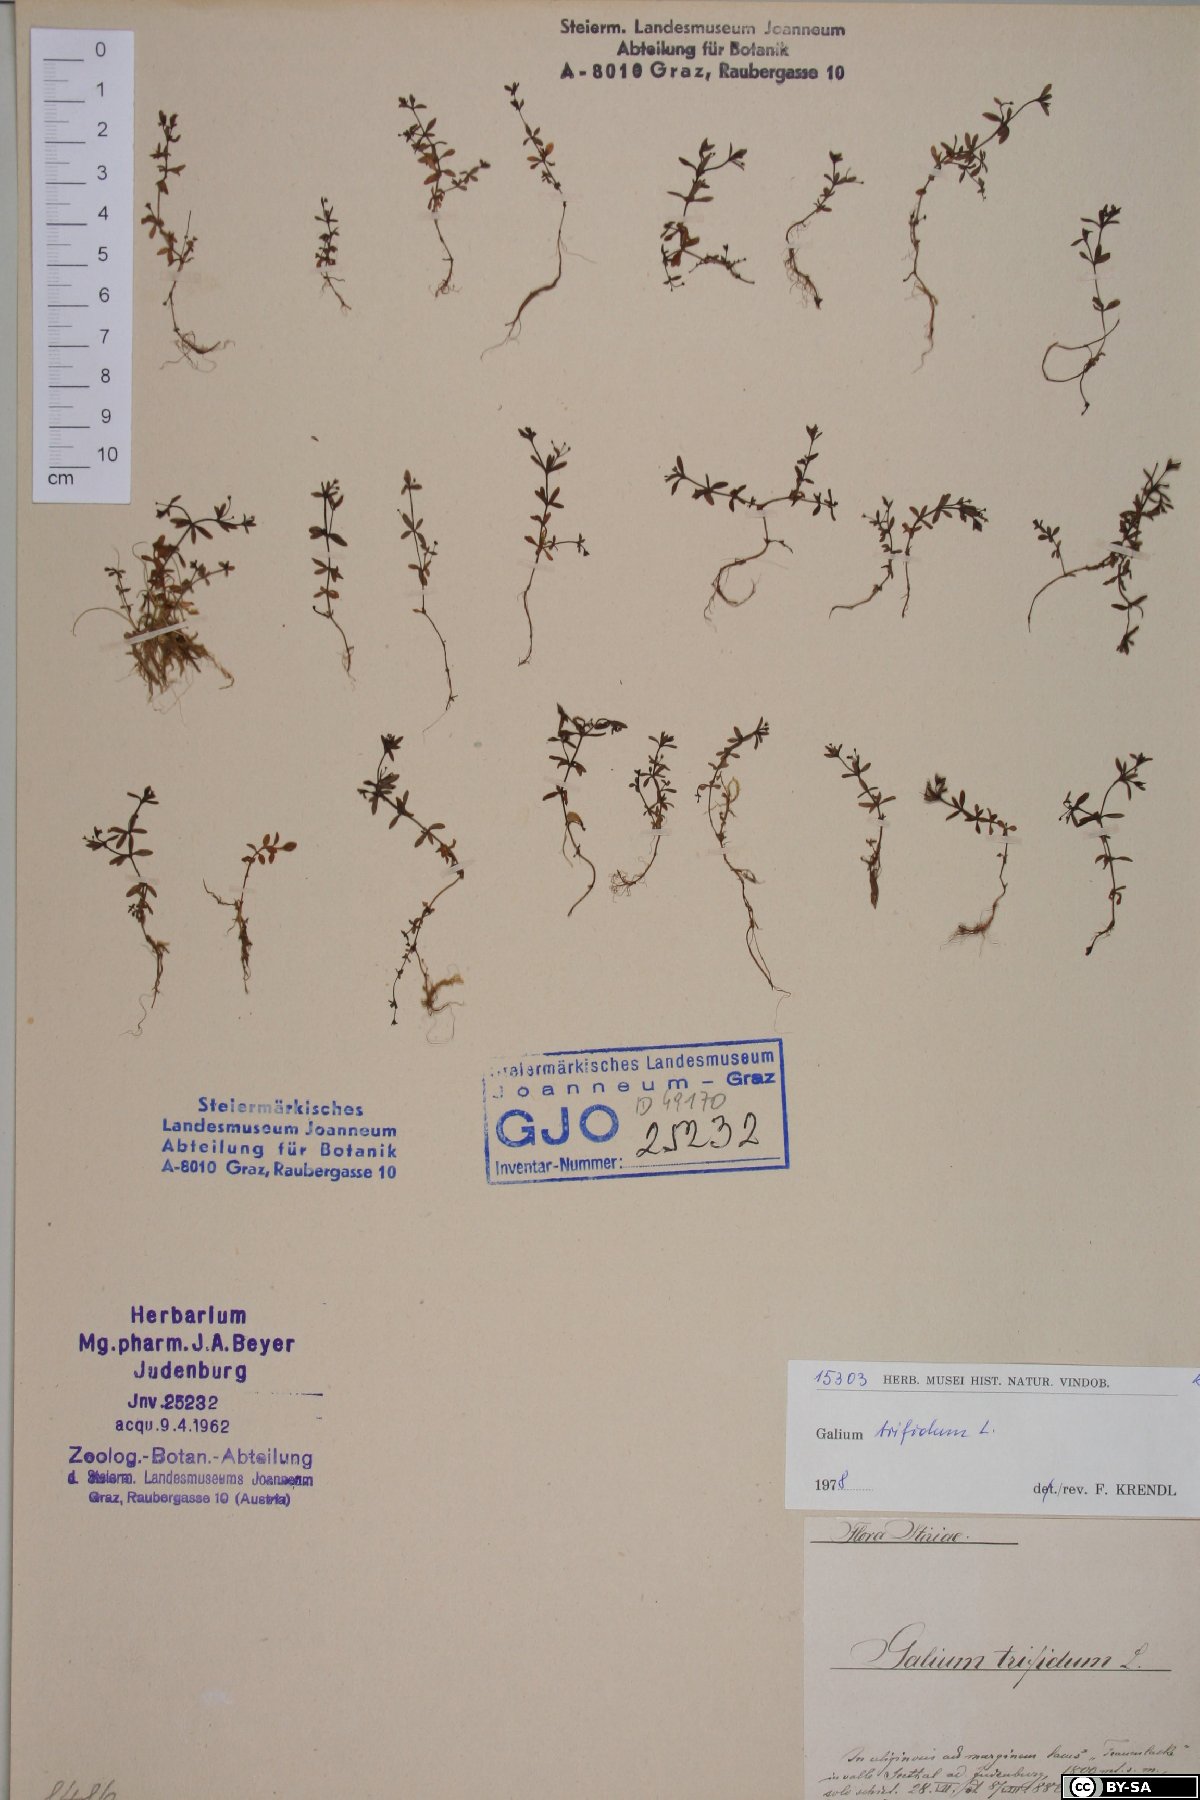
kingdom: Plantae
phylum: Tracheophyta
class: Magnoliopsida
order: Gentianales
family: Rubiaceae
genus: Galium
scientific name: Galium trifidum
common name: Small bedstraw
